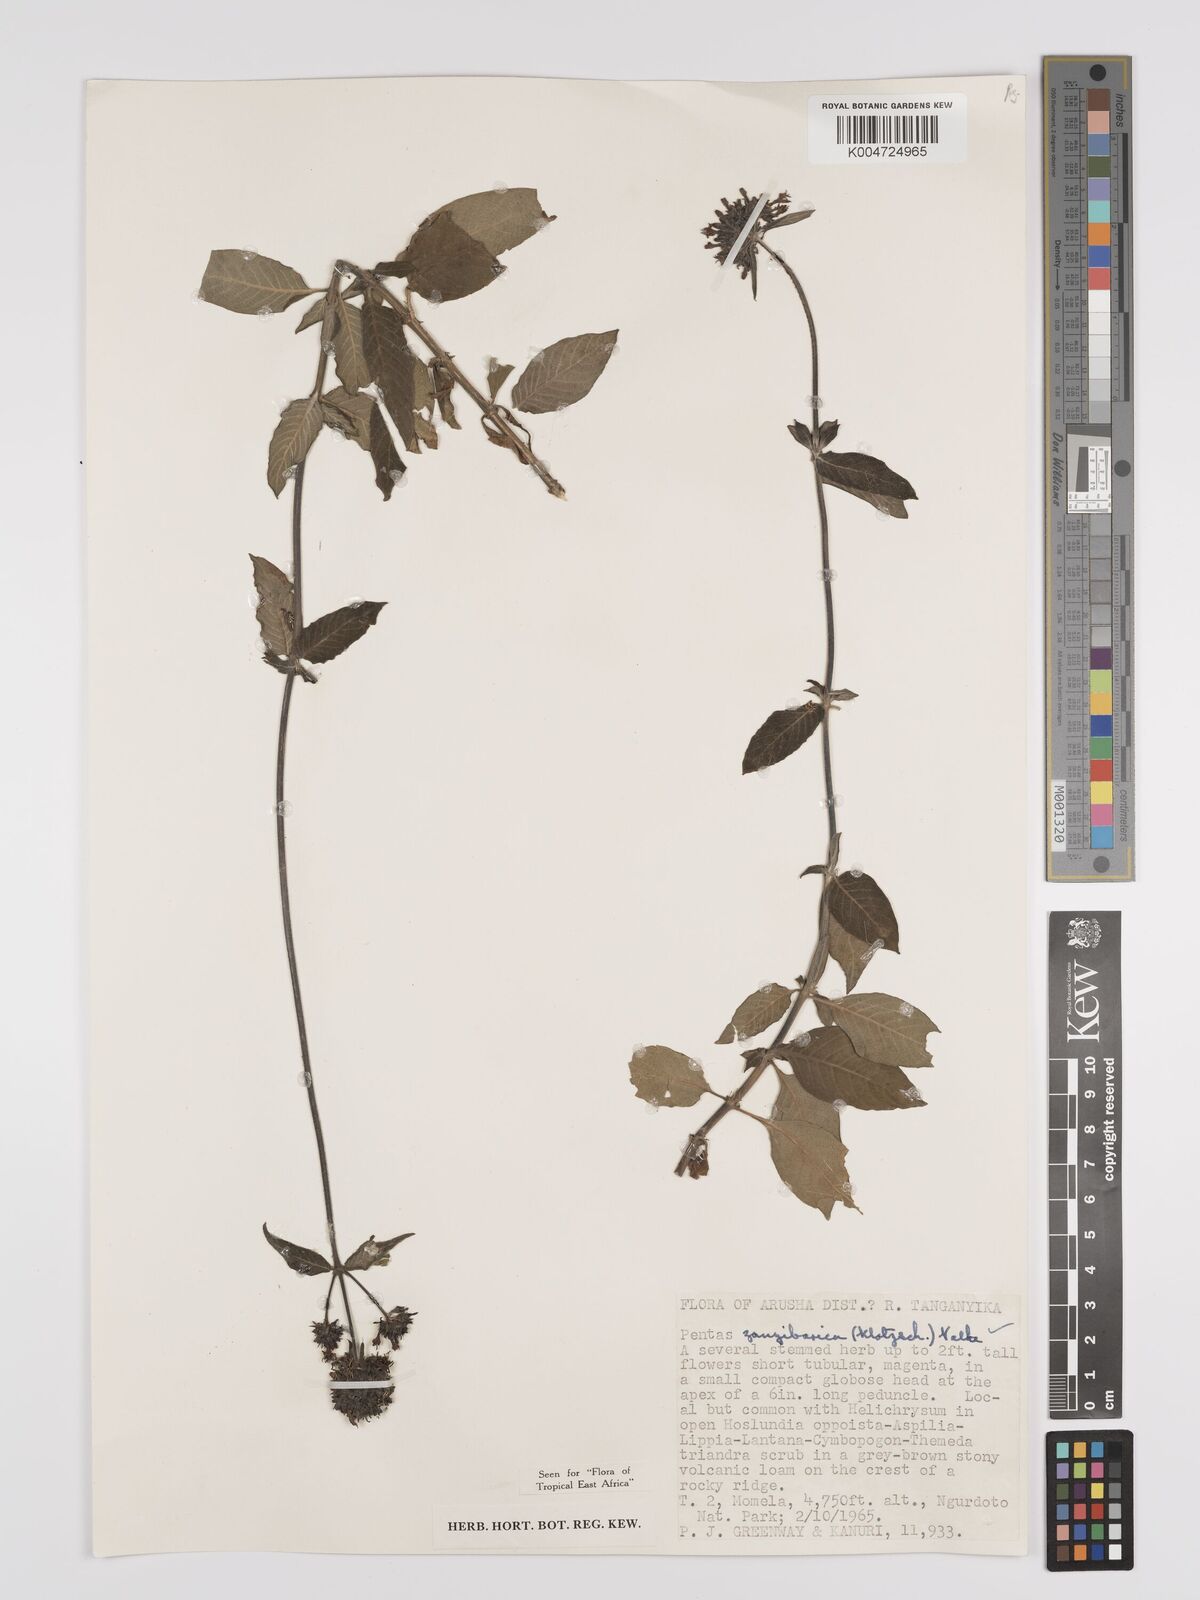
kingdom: Plantae
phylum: Tracheophyta
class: Magnoliopsida
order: Gentianales
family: Rubiaceae
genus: Pentas
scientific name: Pentas zanzibarica
